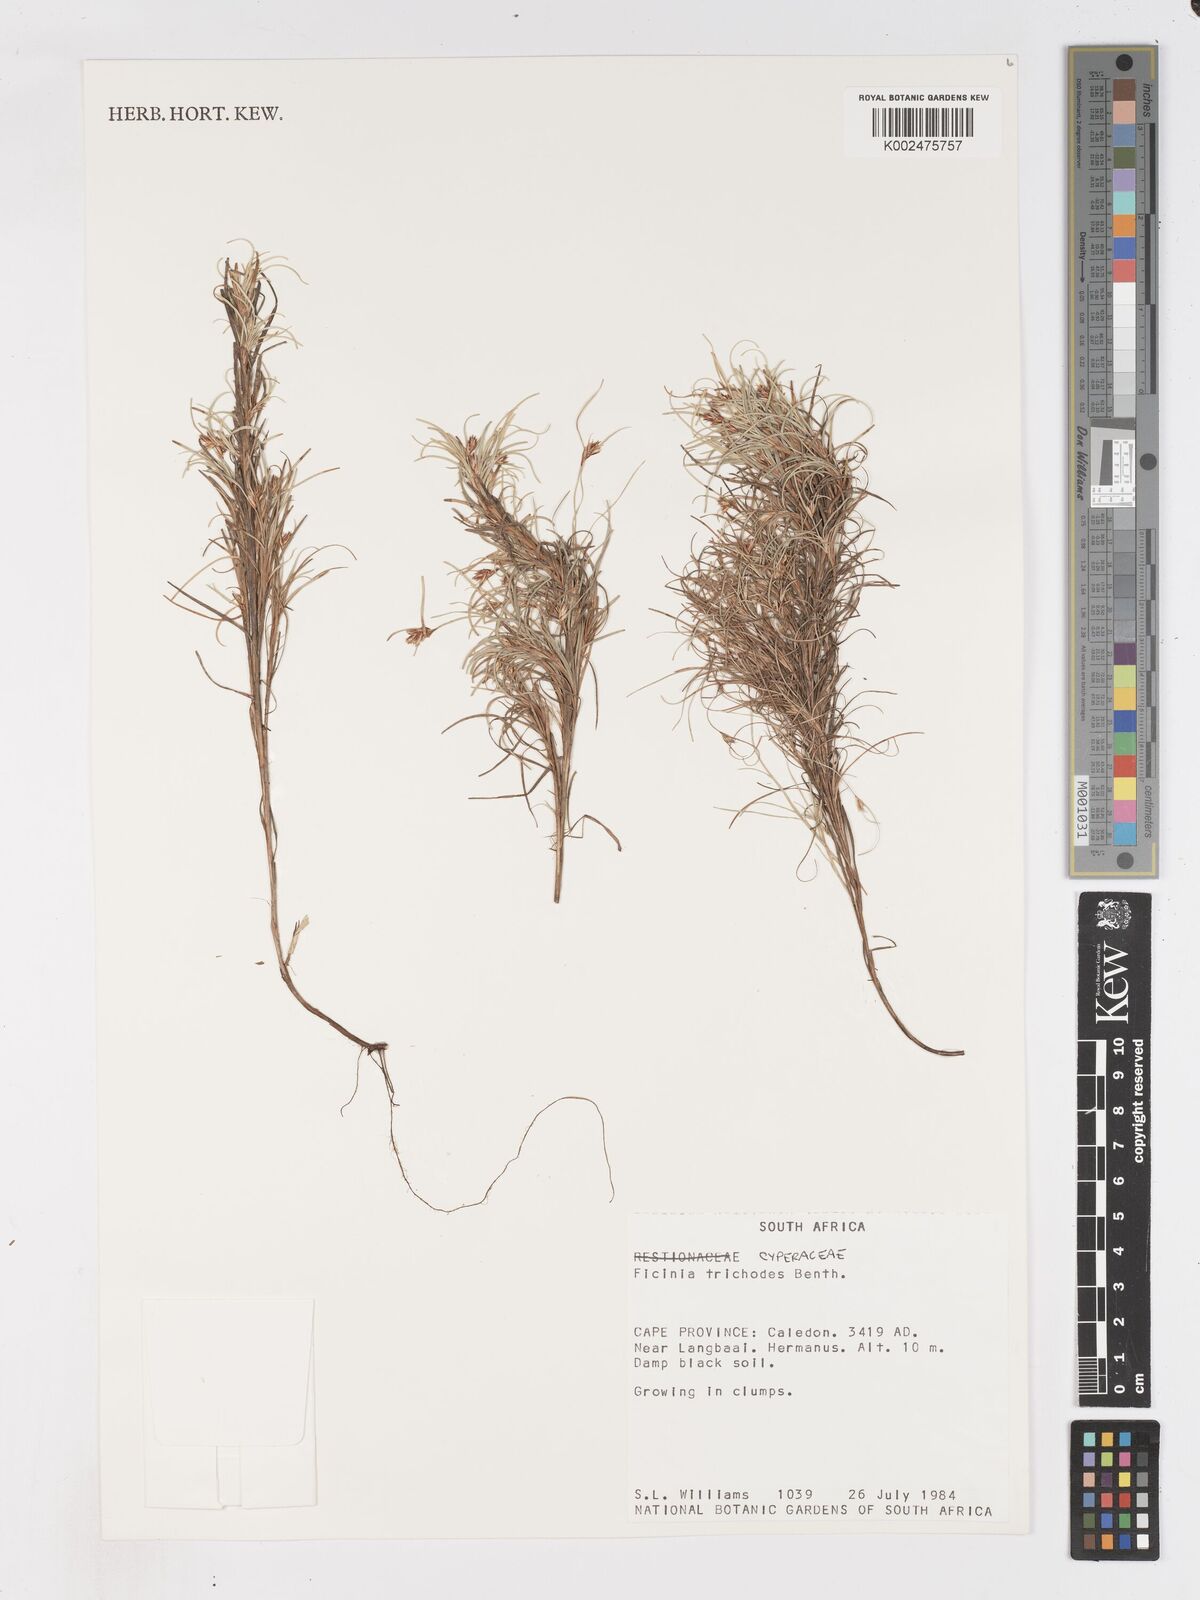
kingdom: Plantae
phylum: Tracheophyta
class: Liliopsida
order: Poales
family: Cyperaceae
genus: Ficinia
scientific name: Ficinia ramosissima
